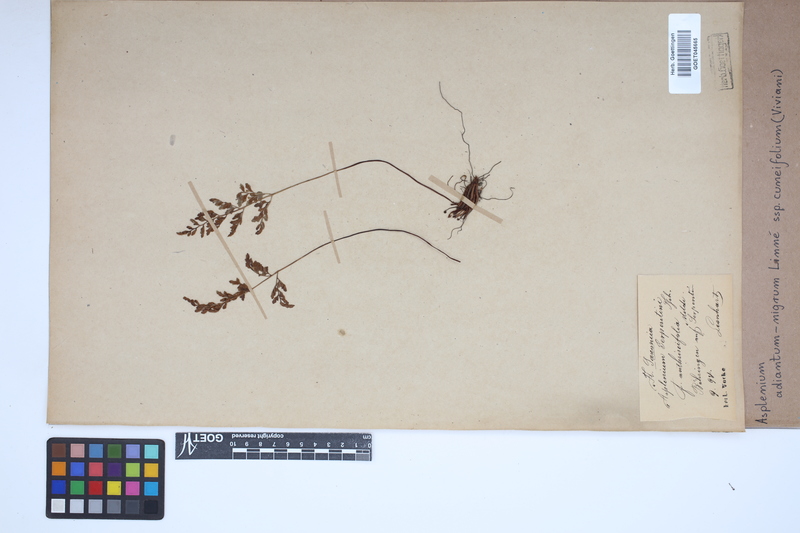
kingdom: Plantae
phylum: Tracheophyta
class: Polypodiopsida
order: Polypodiales
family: Aspleniaceae
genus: Asplenium
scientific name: Asplenium cuneifolium
